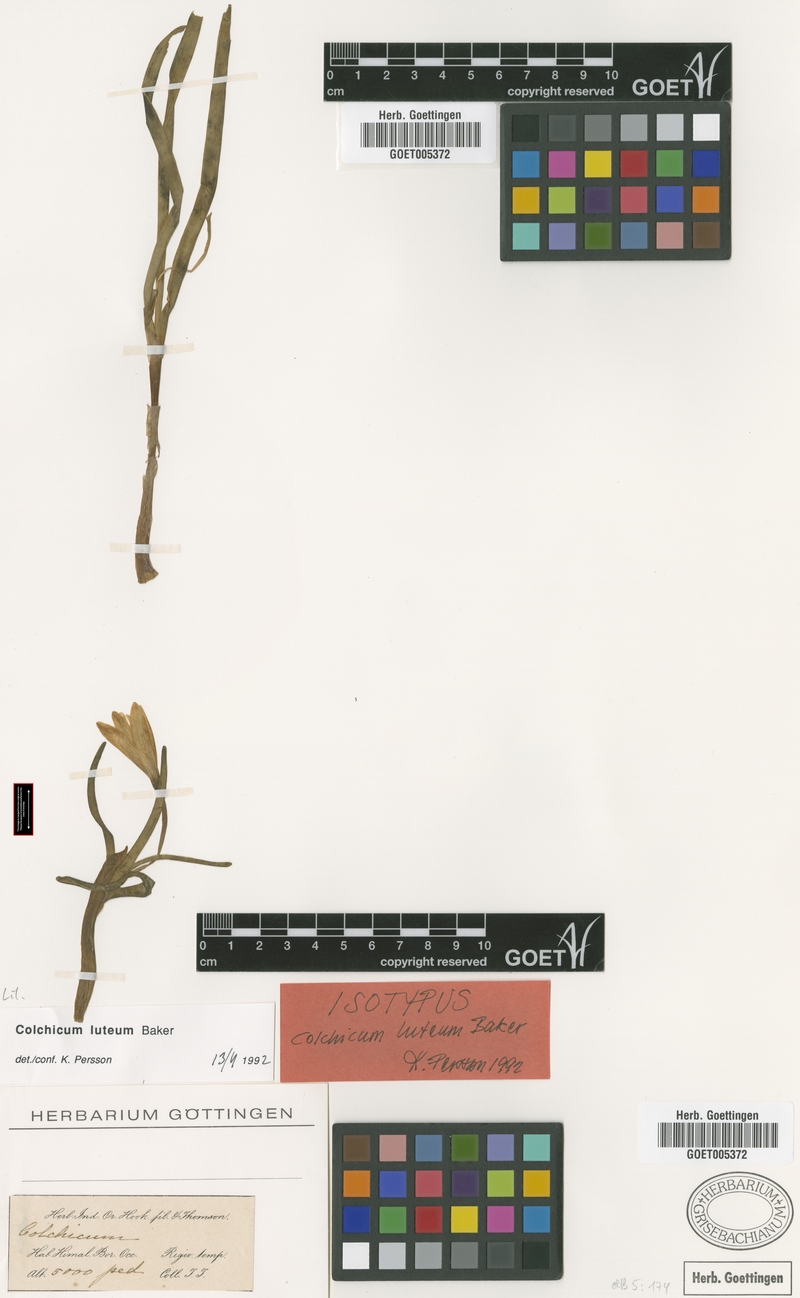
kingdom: Plantae
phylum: Tracheophyta
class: Liliopsida
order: Liliales
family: Colchicaceae
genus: Colchicum
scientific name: Colchicum luteum
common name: Indian colchicum
